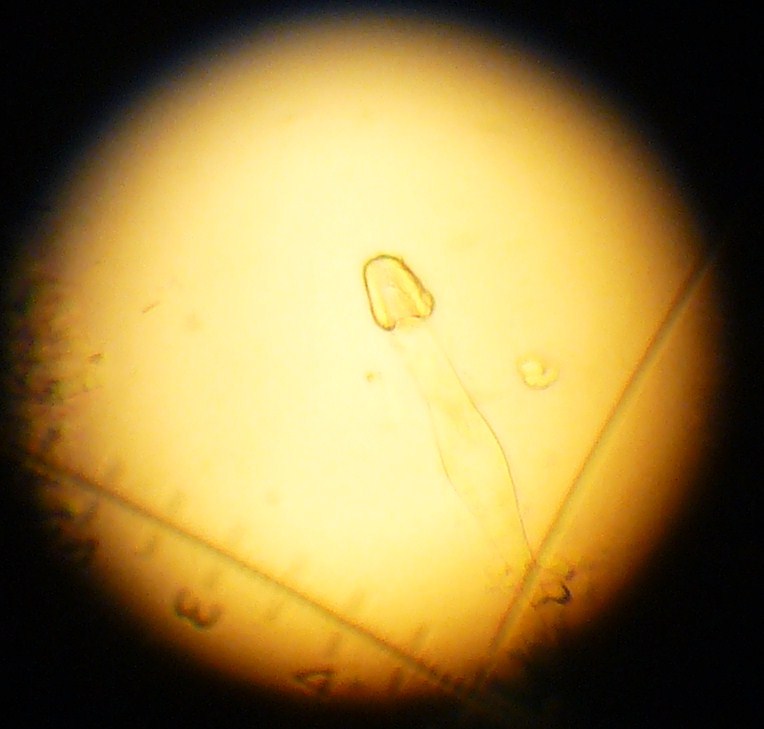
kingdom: Fungi
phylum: Basidiomycota
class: Agaricomycetes
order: Agaricales
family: Physalacriaceae
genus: Strobilurus
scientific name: Strobilurus tenacellus
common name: sommer-koglehat
